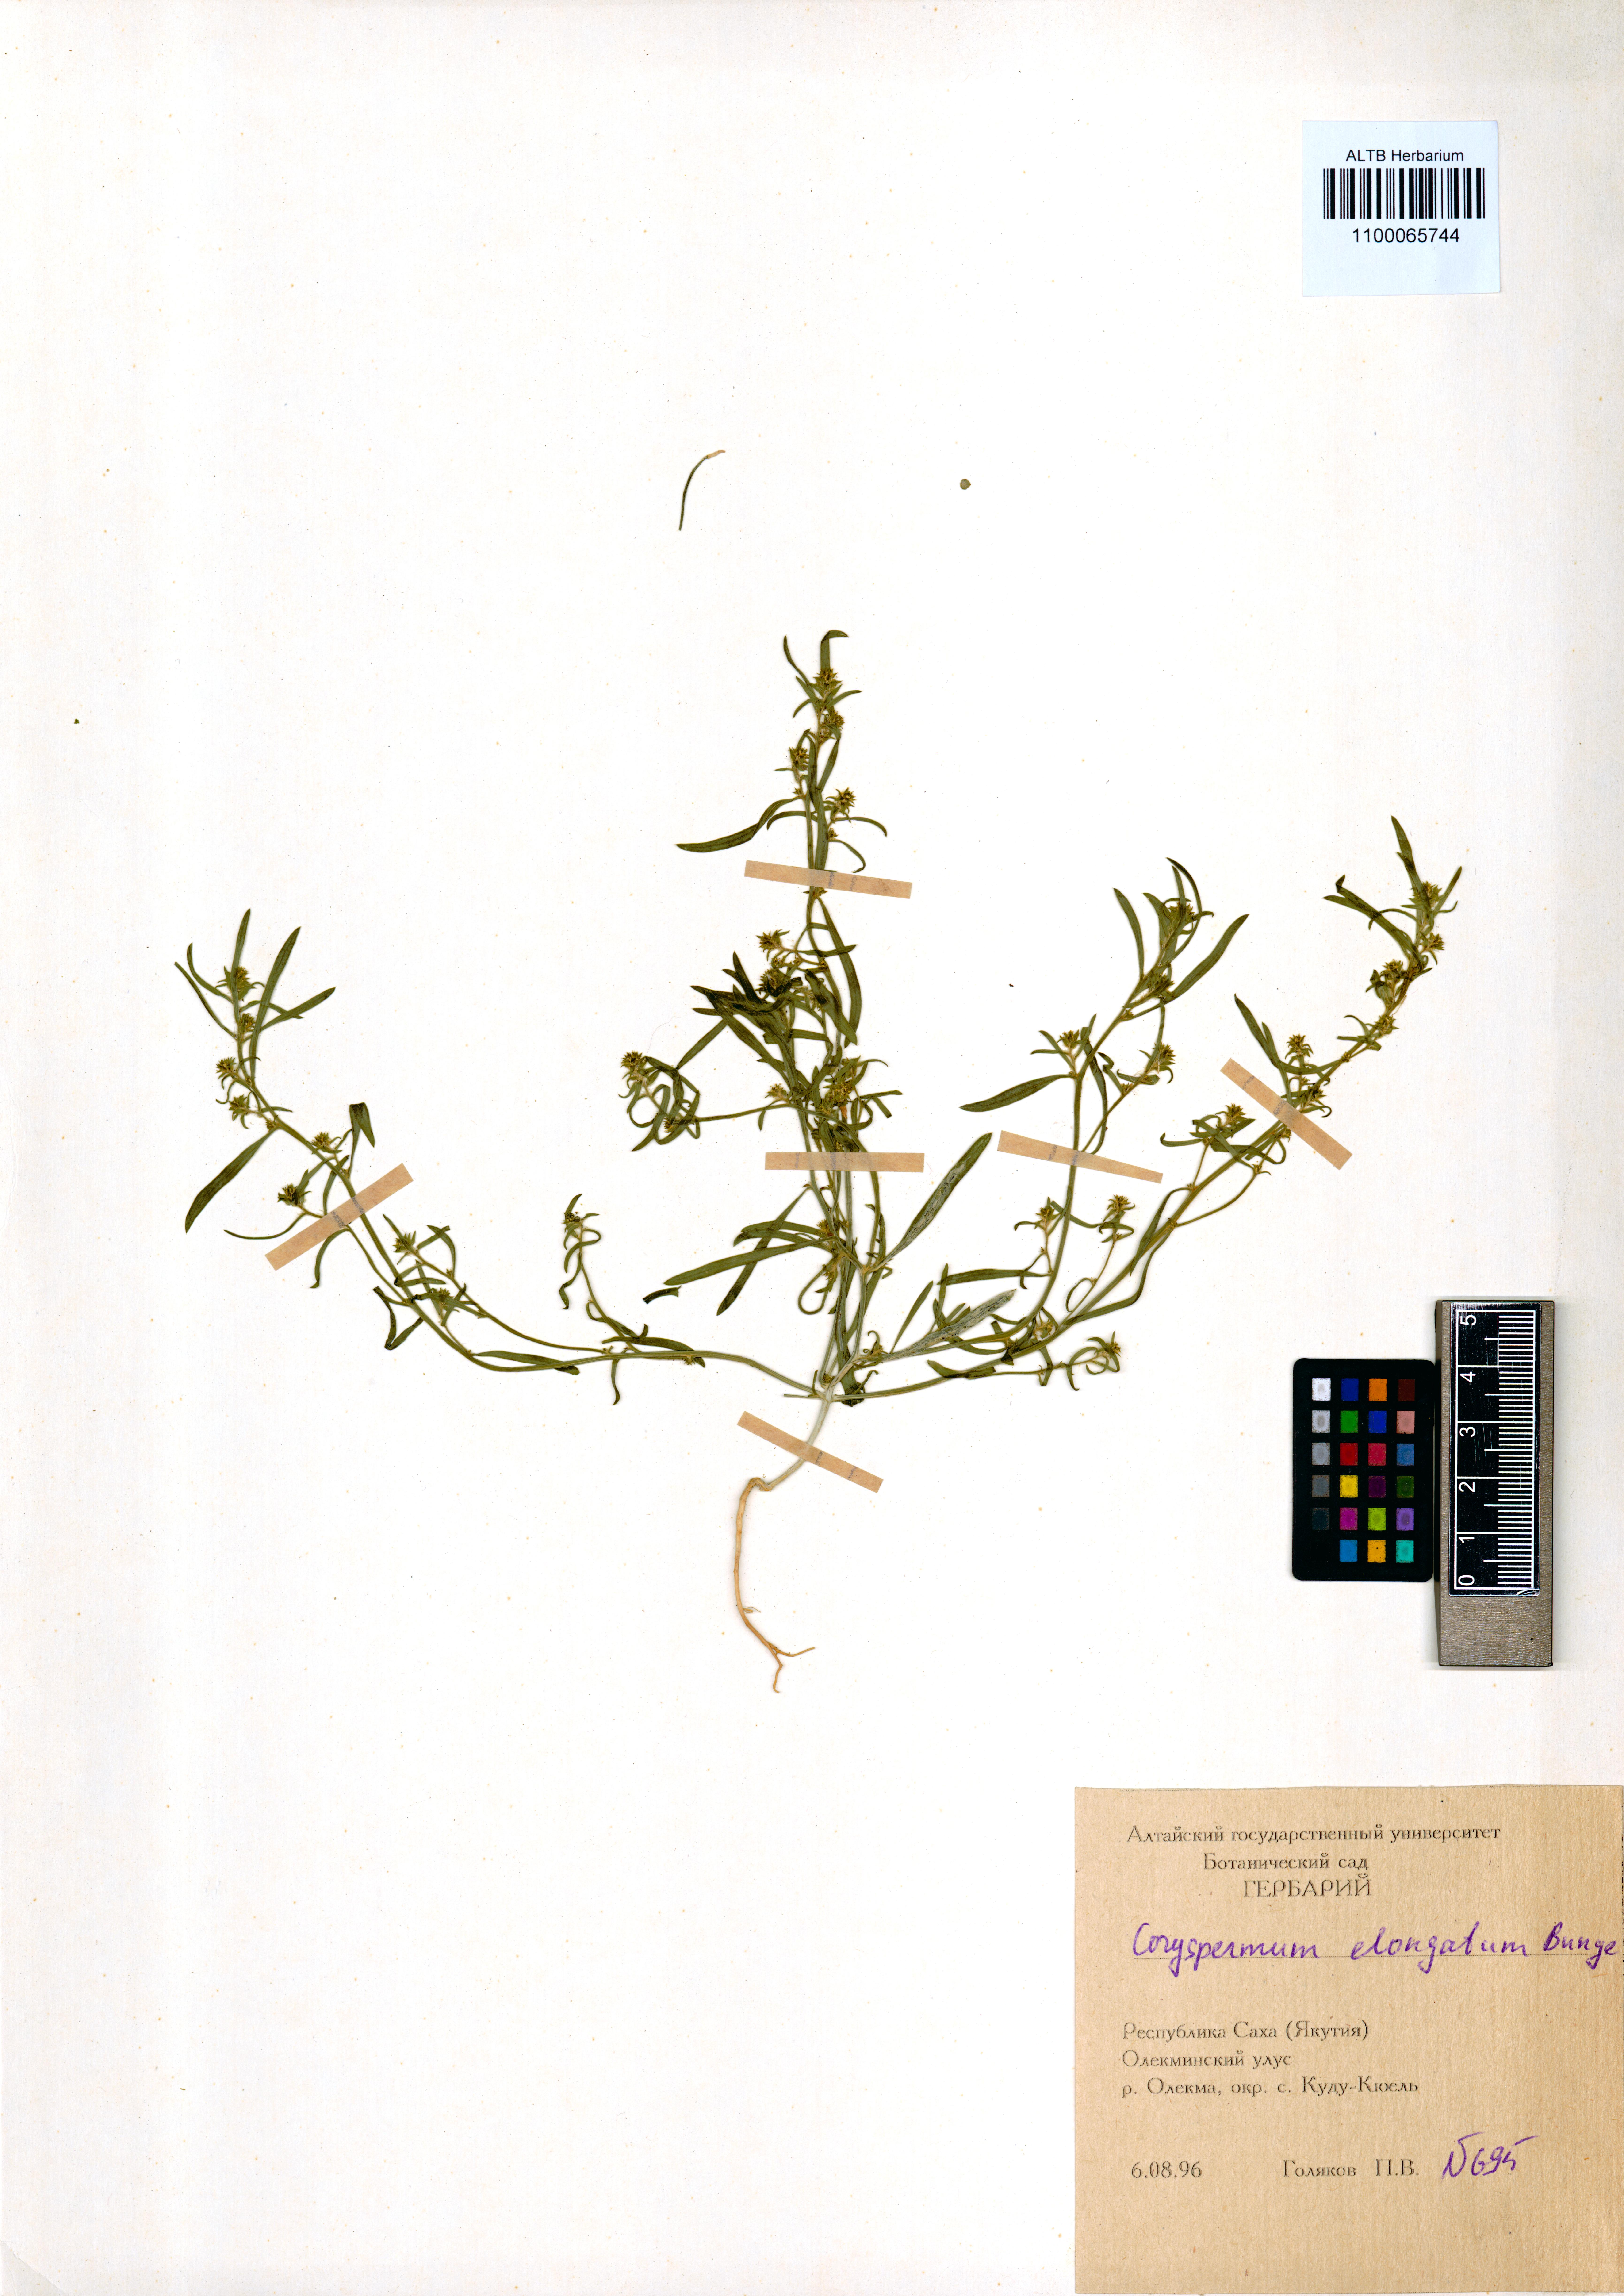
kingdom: Plantae
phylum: Tracheophyta
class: Magnoliopsida
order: Caryophyllales
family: Amaranthaceae
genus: Corispermum
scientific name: Corispermum elongatum
